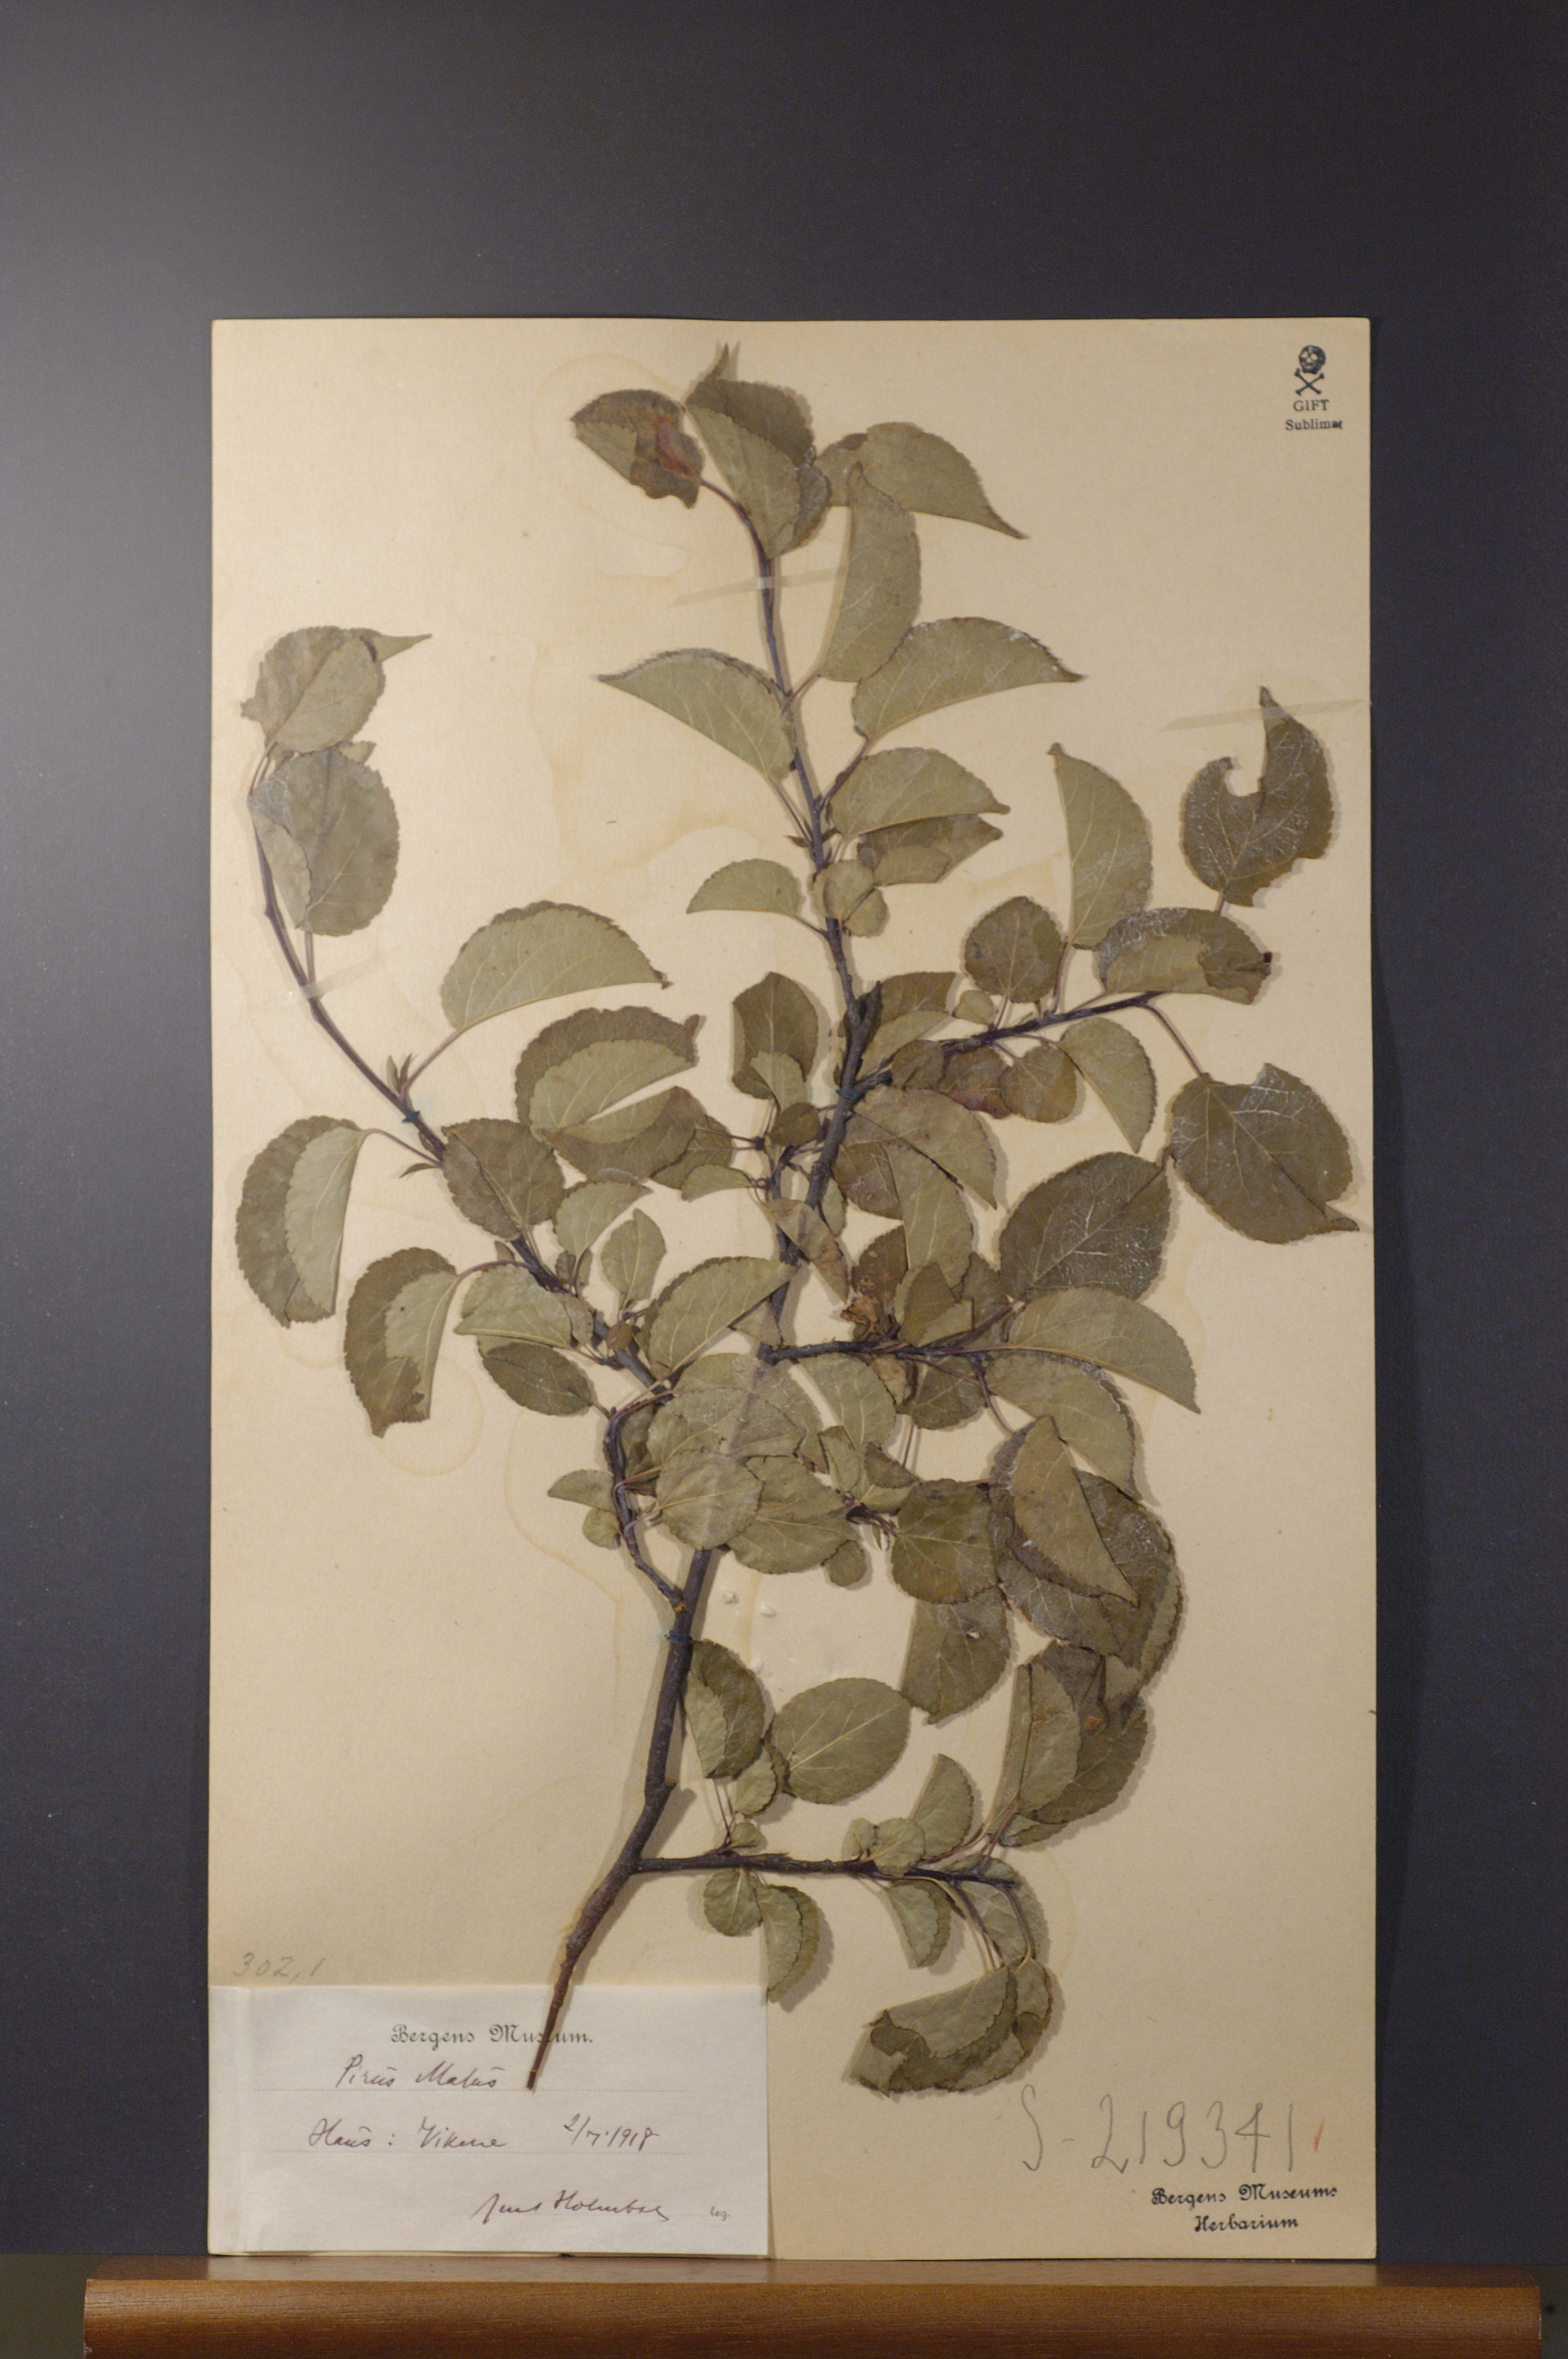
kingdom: Plantae
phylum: Tracheophyta
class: Magnoliopsida
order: Rosales
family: Rosaceae
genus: Malus
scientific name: Malus domestica
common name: Apple
